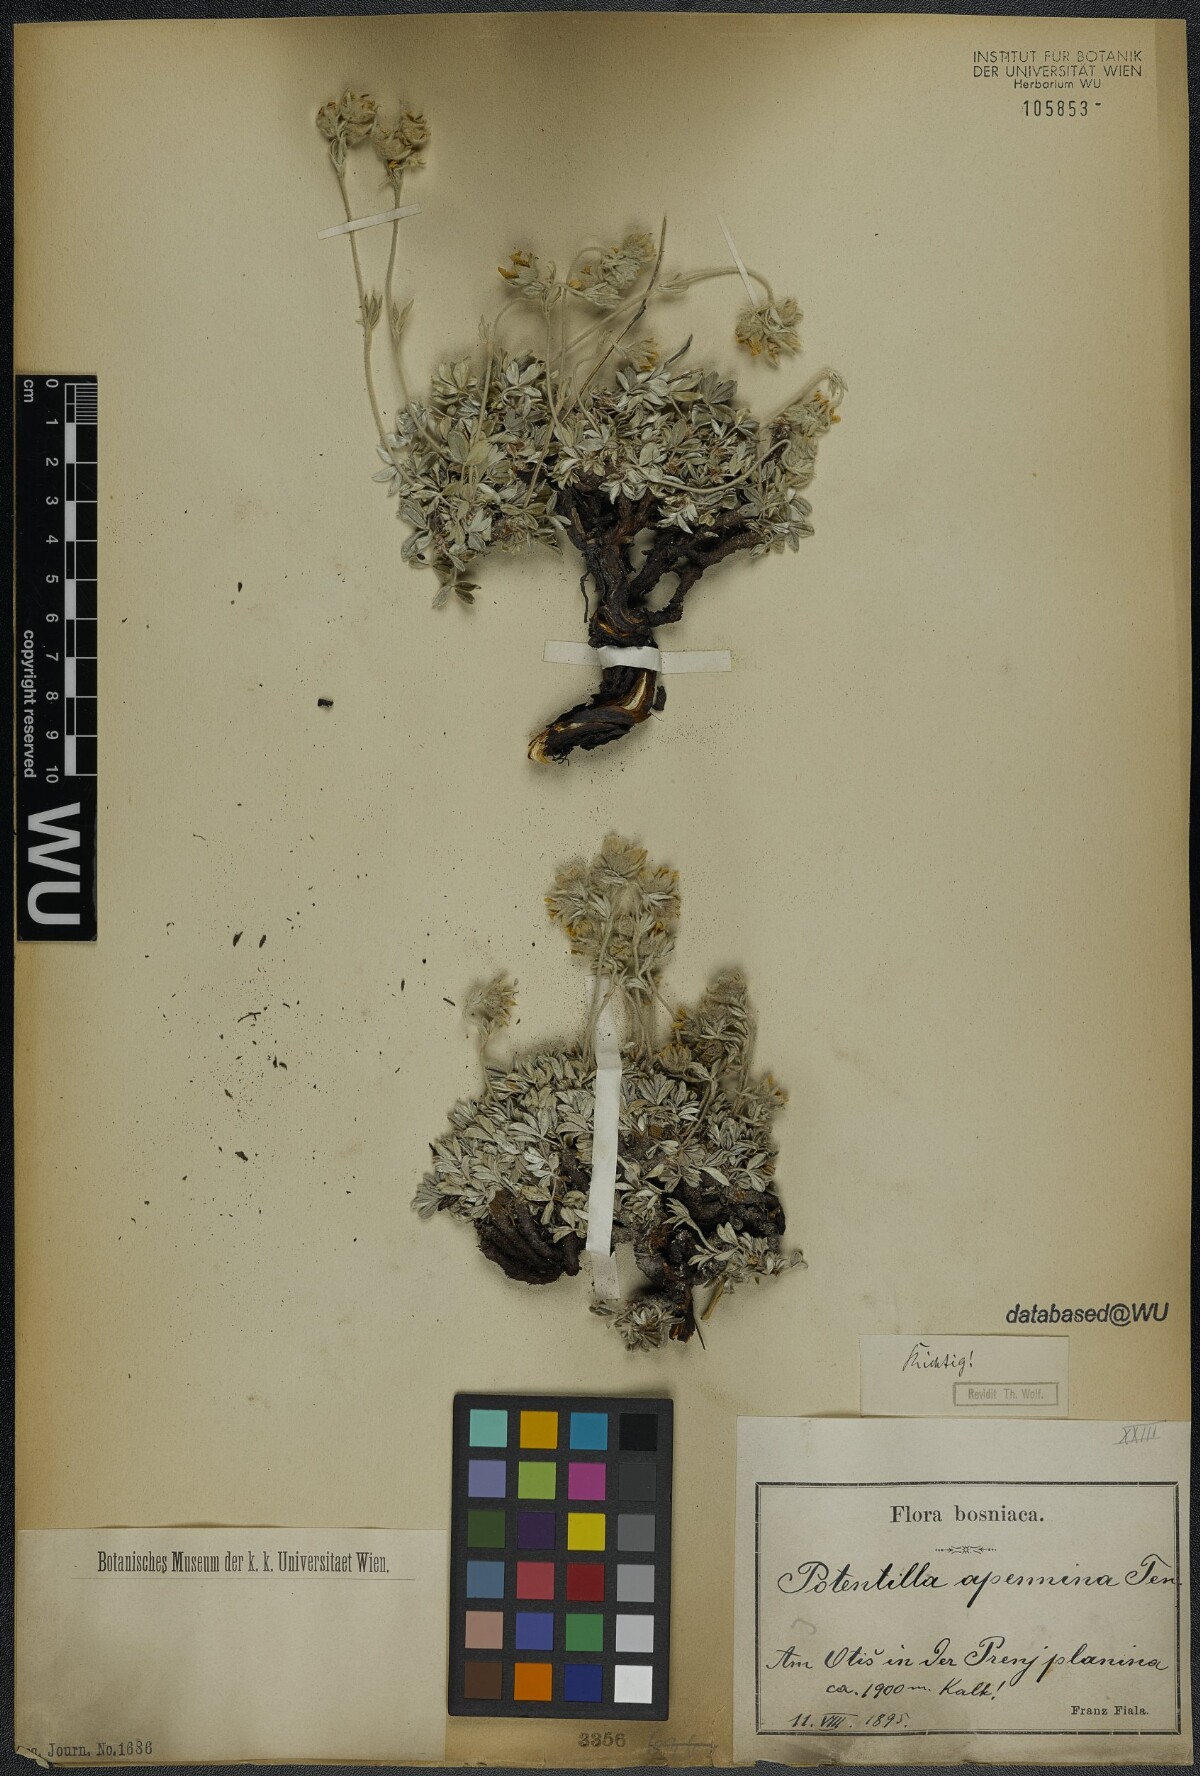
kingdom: Plantae
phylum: Tracheophyta
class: Magnoliopsida
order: Rosales
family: Rosaceae
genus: Potentilla
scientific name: Potentilla apennina
